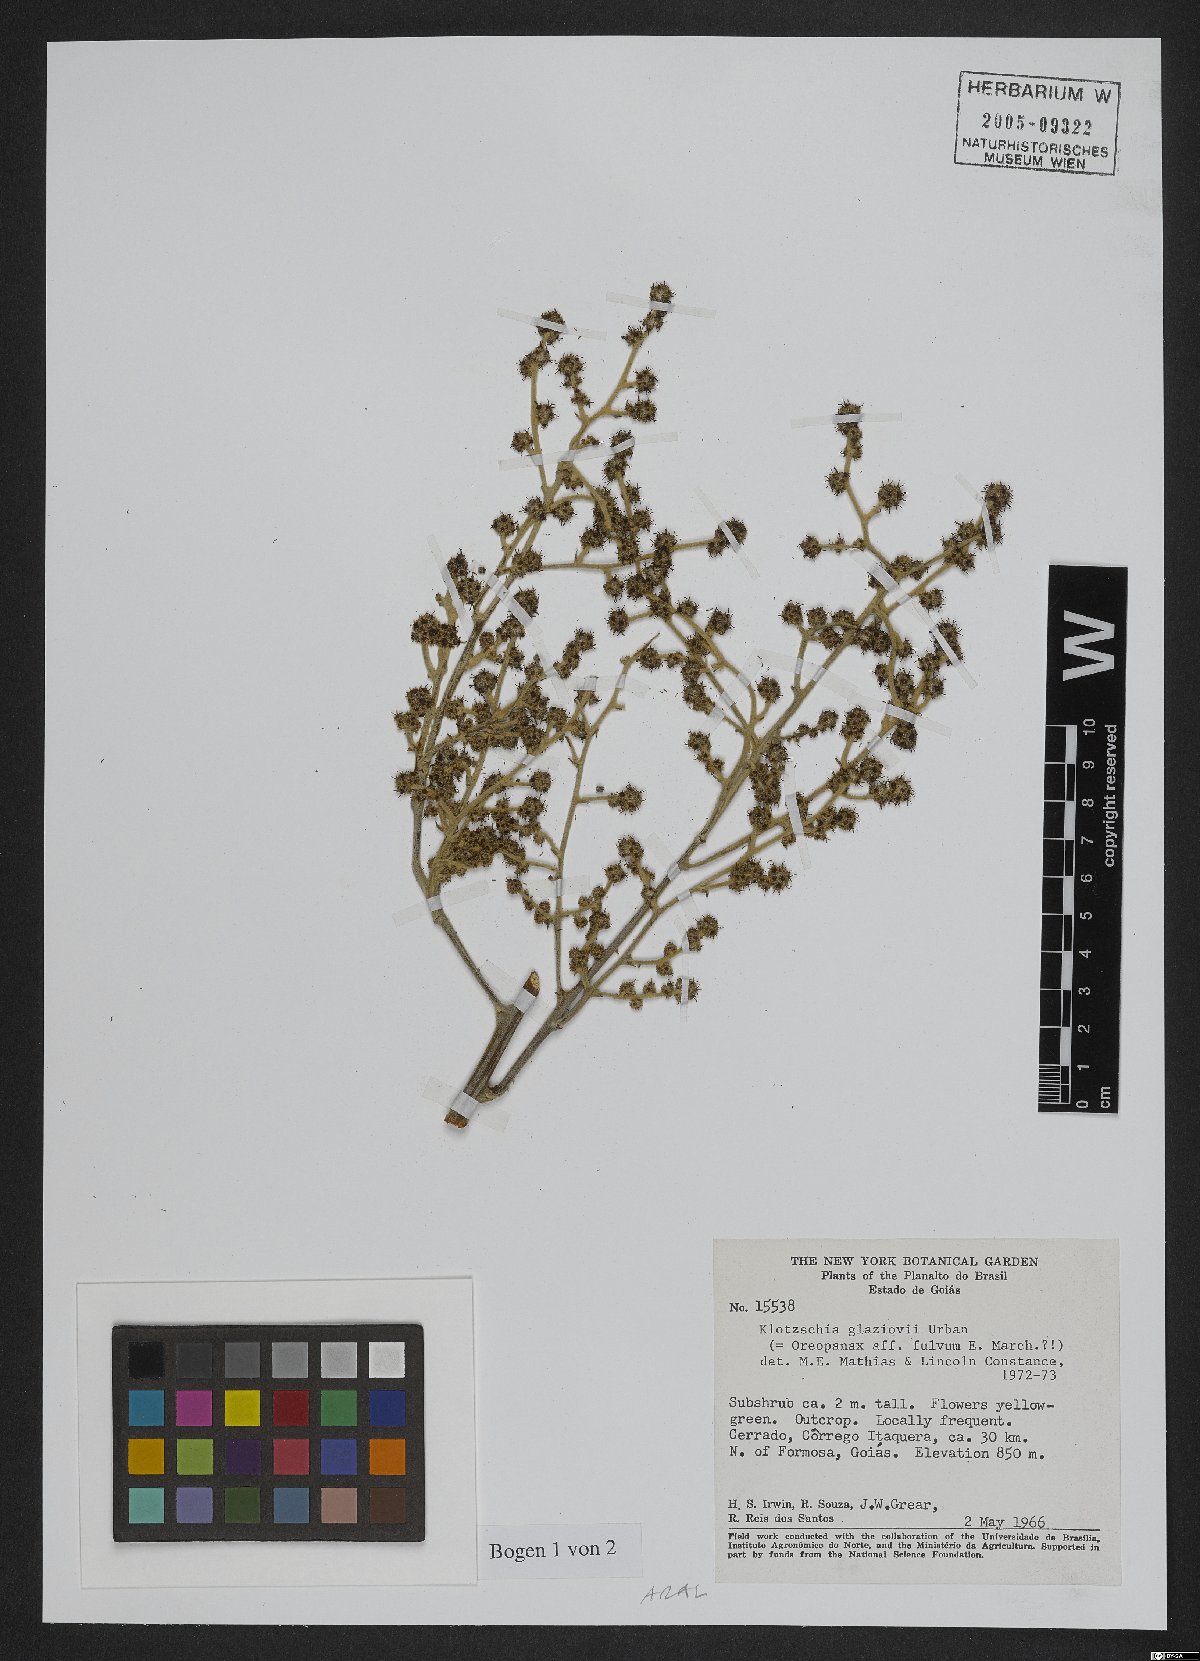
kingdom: Plantae
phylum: Tracheophyta
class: Magnoliopsida
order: Apiales
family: Araliaceae
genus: Oreopanax
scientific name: Oreopanax fulvus
